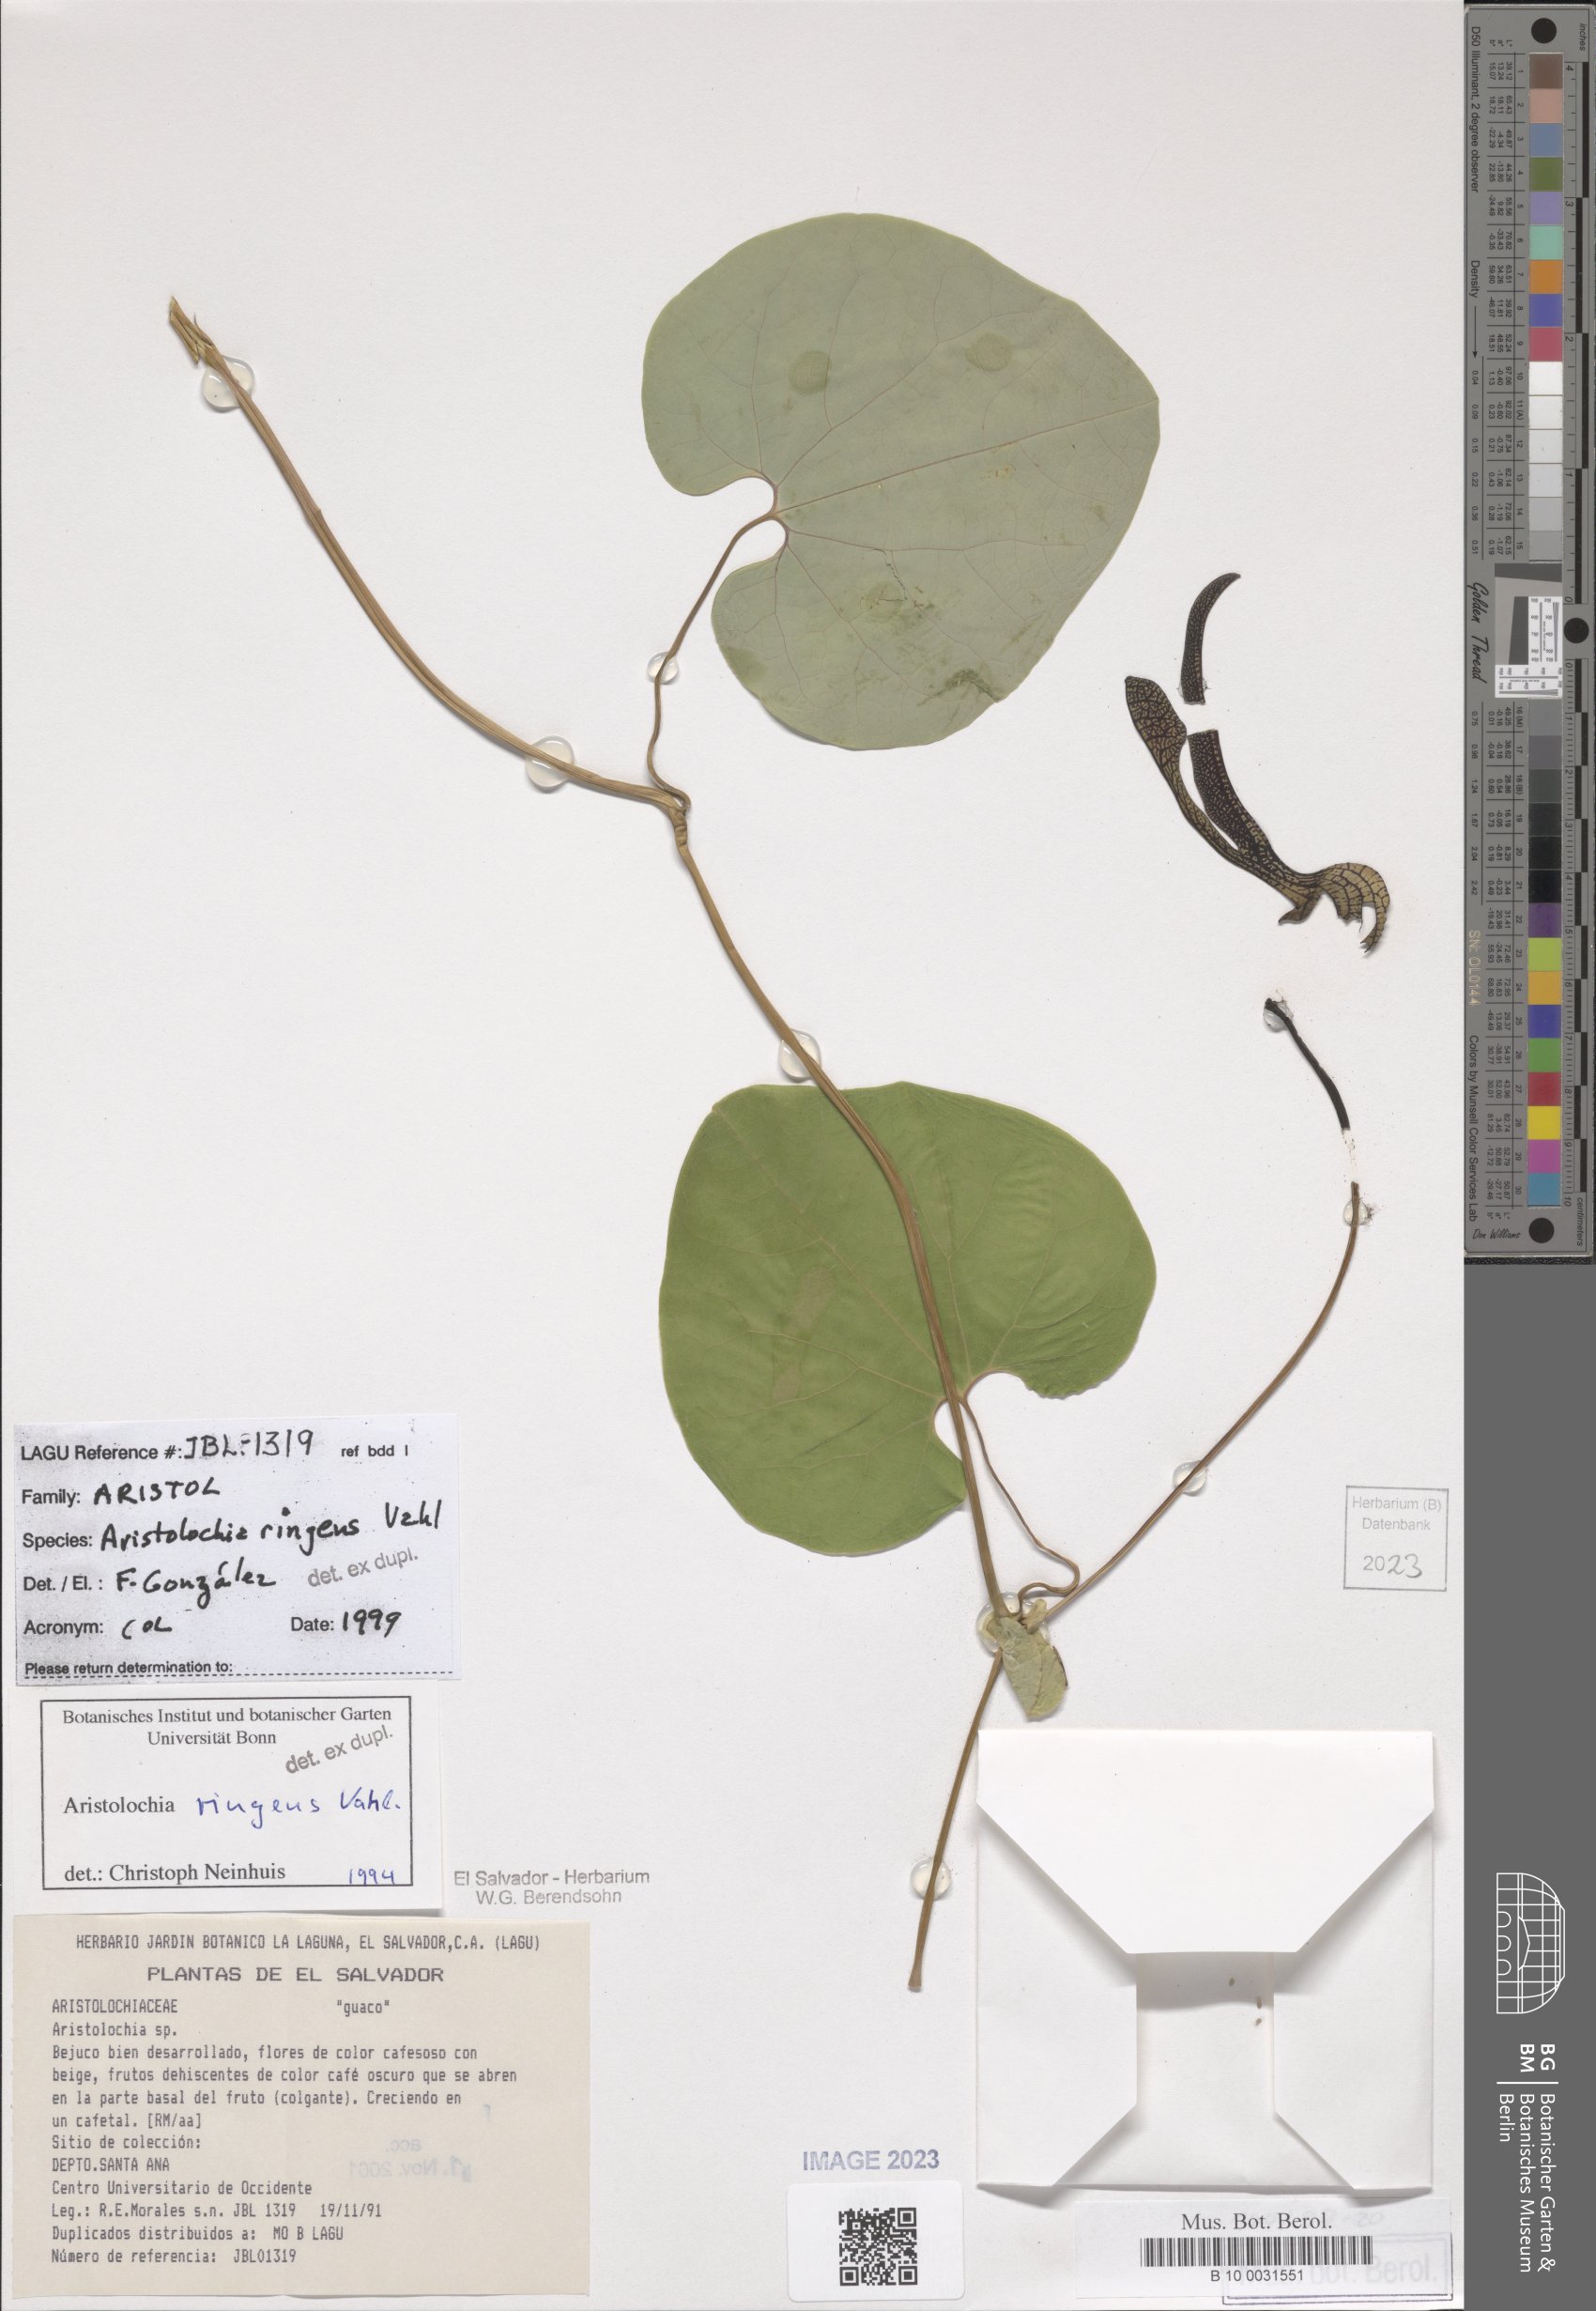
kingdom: Plantae
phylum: Tracheophyta
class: Magnoliopsida
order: Piperales
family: Aristolochiaceae
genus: Aristolochia
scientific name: Aristolochia ringens
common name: Gaping dutchman's pipe
